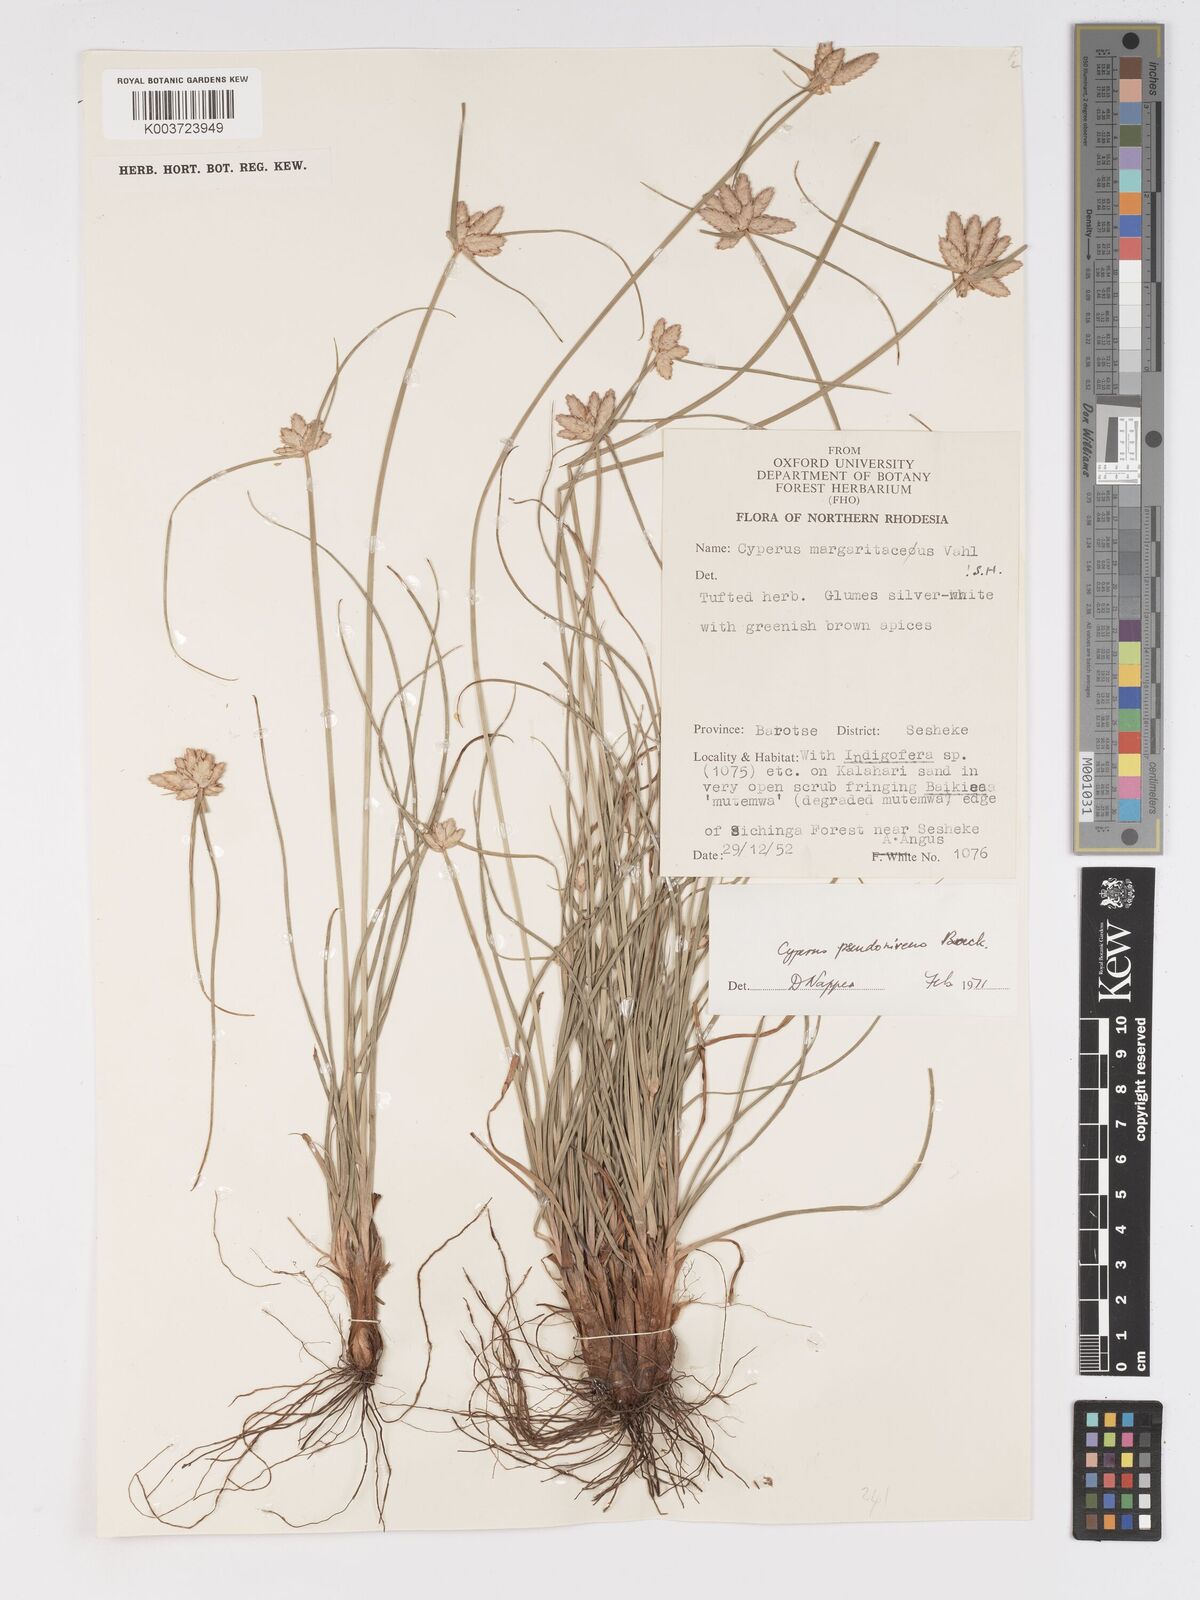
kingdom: Plantae
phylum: Tracheophyta
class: Liliopsida
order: Poales
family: Cyperaceae
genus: Cyperus
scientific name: Cyperus margaritaceus
